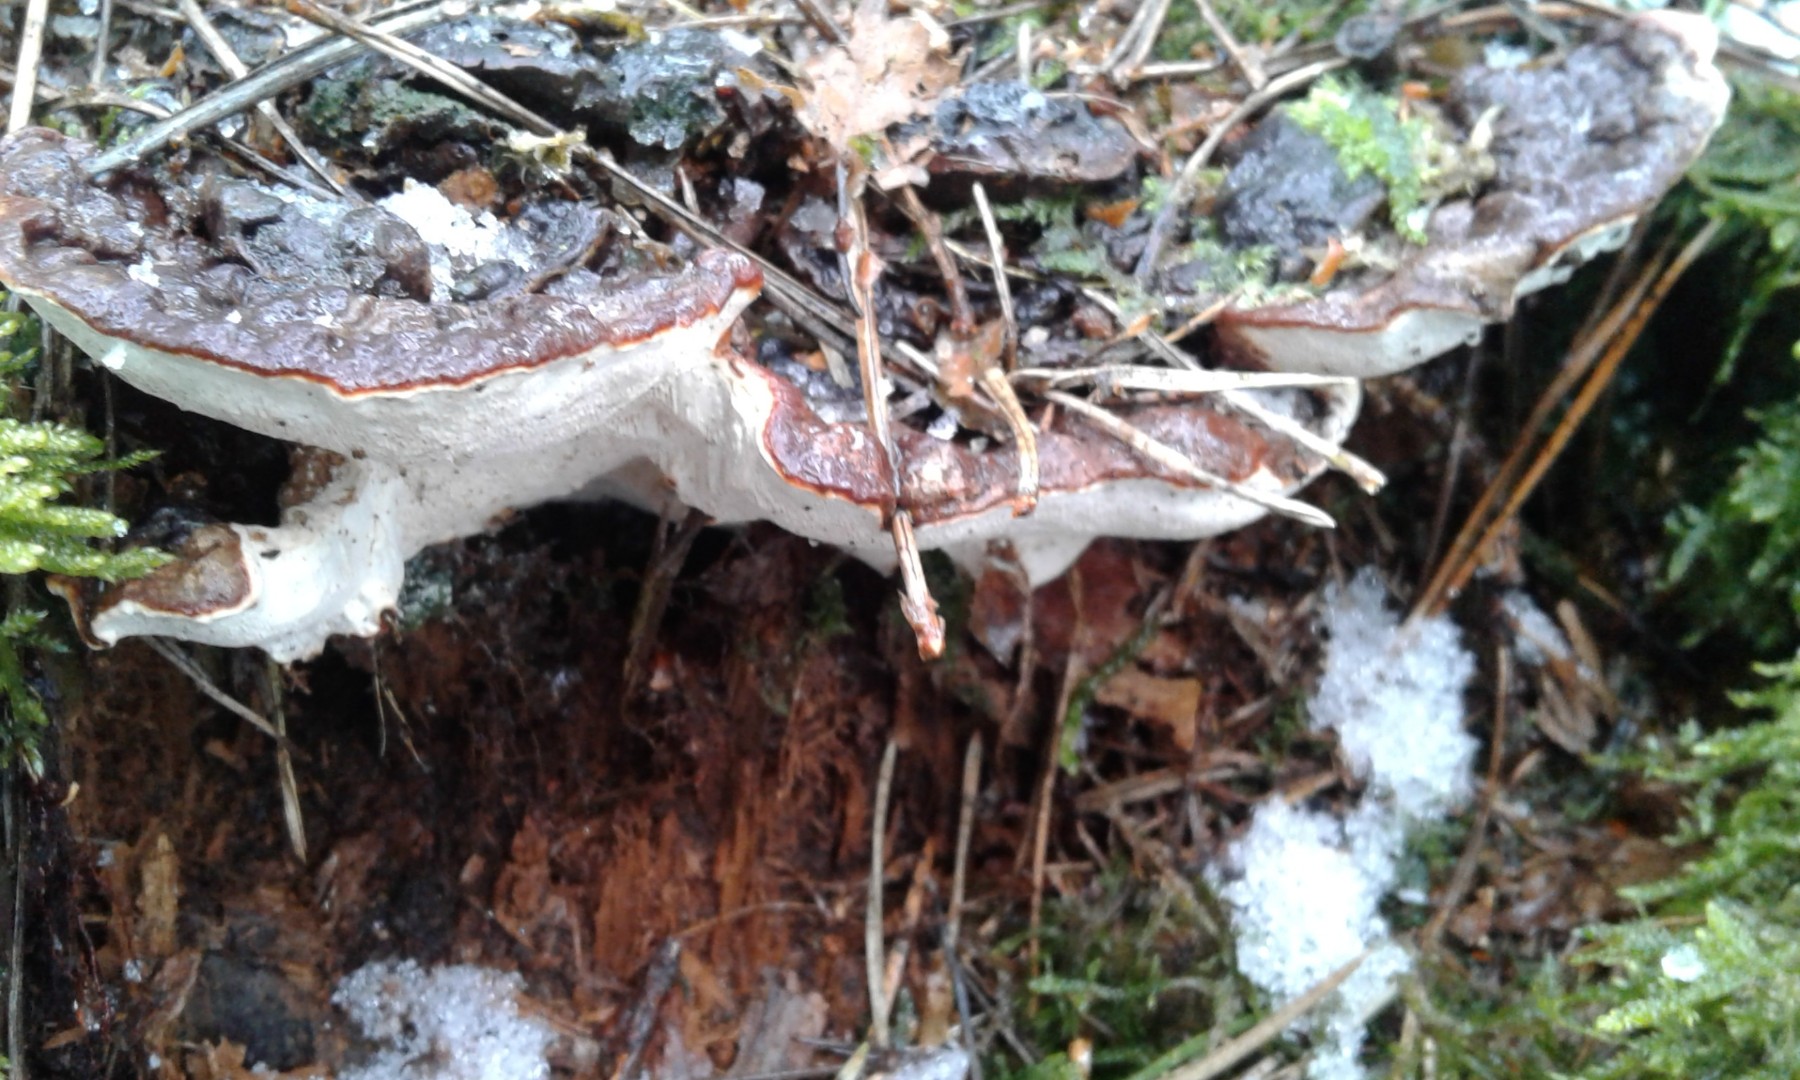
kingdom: Fungi
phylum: Basidiomycota
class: Agaricomycetes
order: Russulales
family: Bondarzewiaceae
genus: Heterobasidion
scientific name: Heterobasidion annosum
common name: almindelig rodfordærver
